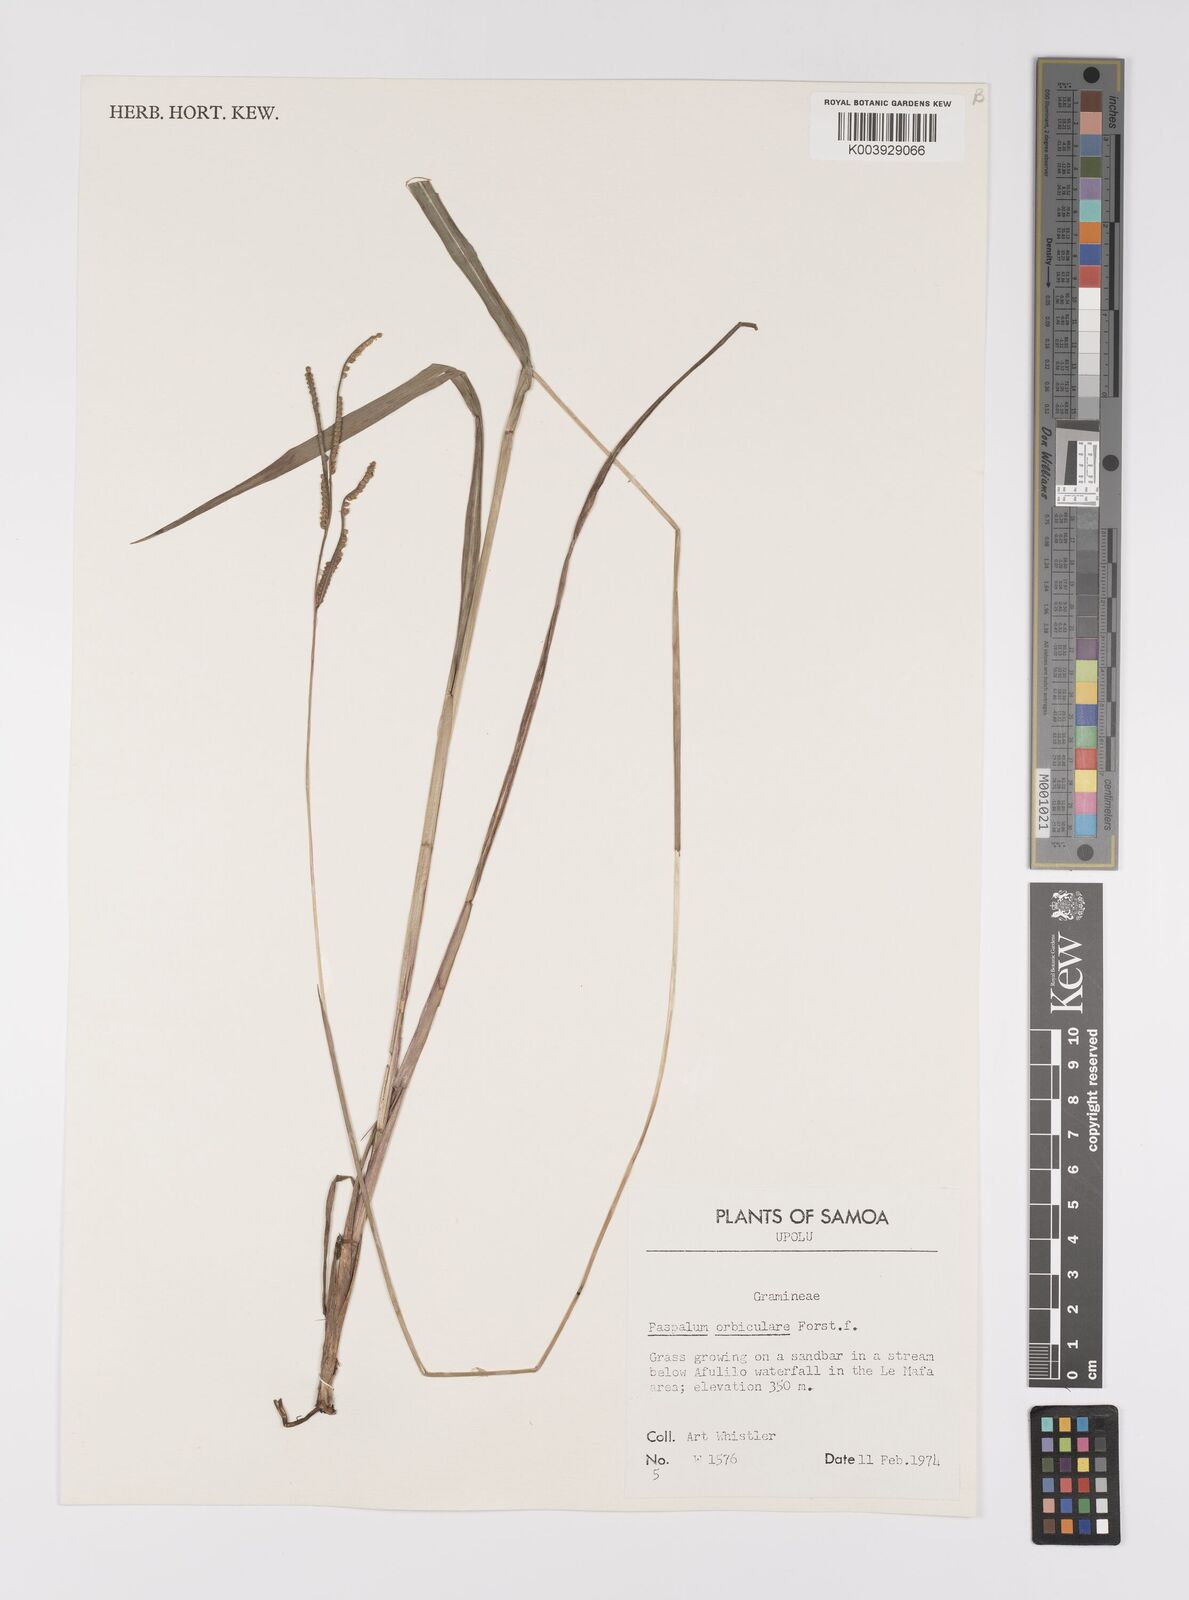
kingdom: Plantae
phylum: Tracheophyta
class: Liliopsida
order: Poales
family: Poaceae
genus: Paspalum
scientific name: Paspalum scrobiculatum
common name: Kodo millet
